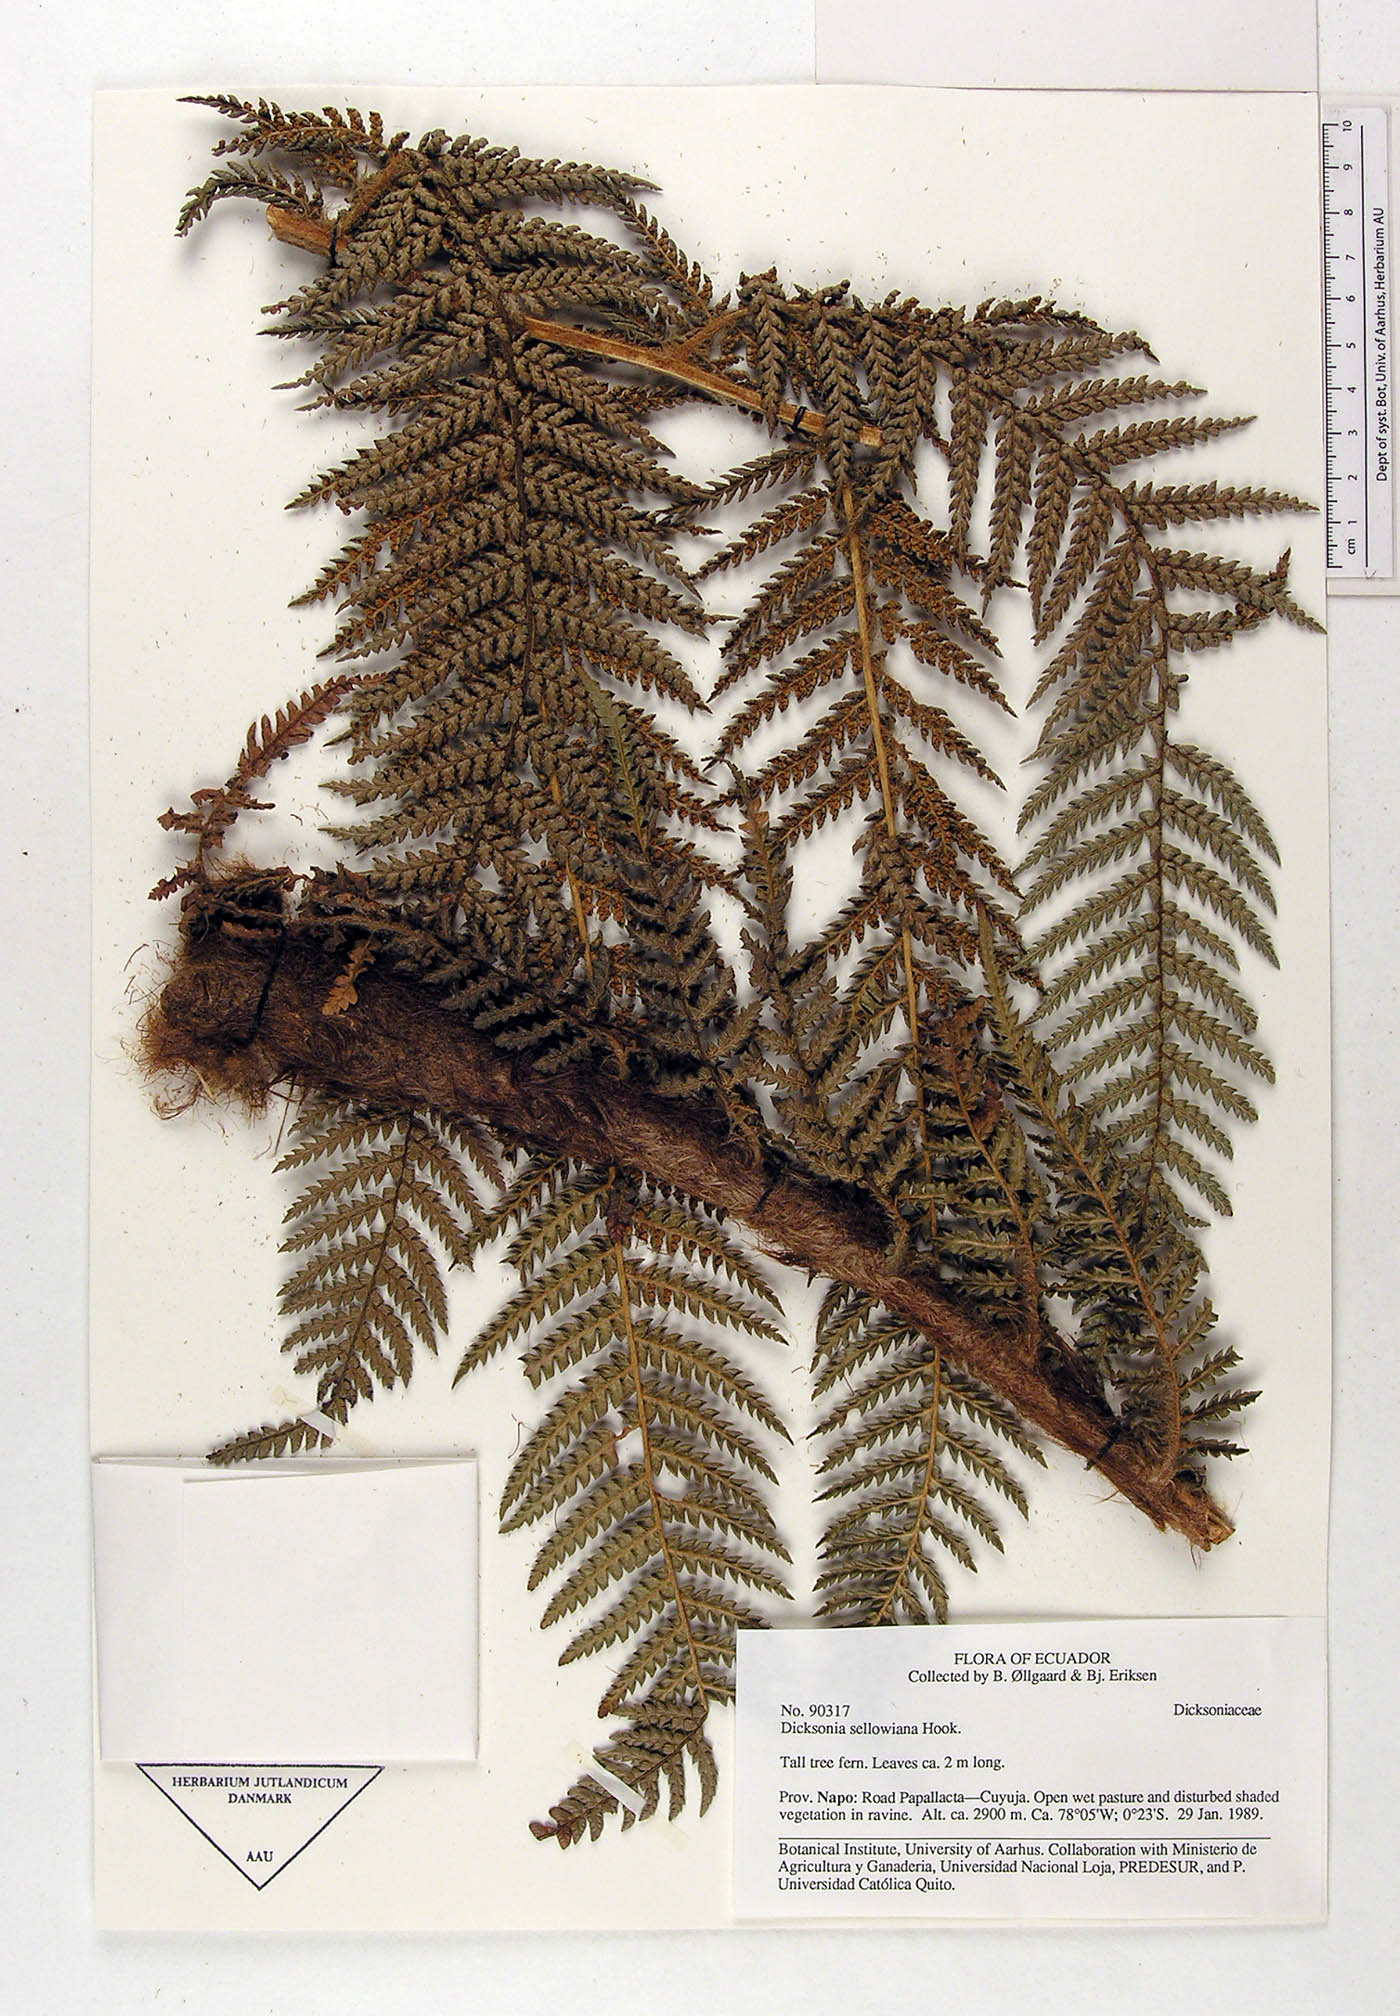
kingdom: Plantae
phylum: Tracheophyta
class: Polypodiopsida
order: Cyatheales
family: Dicksoniaceae
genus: Dicksonia
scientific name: Dicksonia sellowiana
